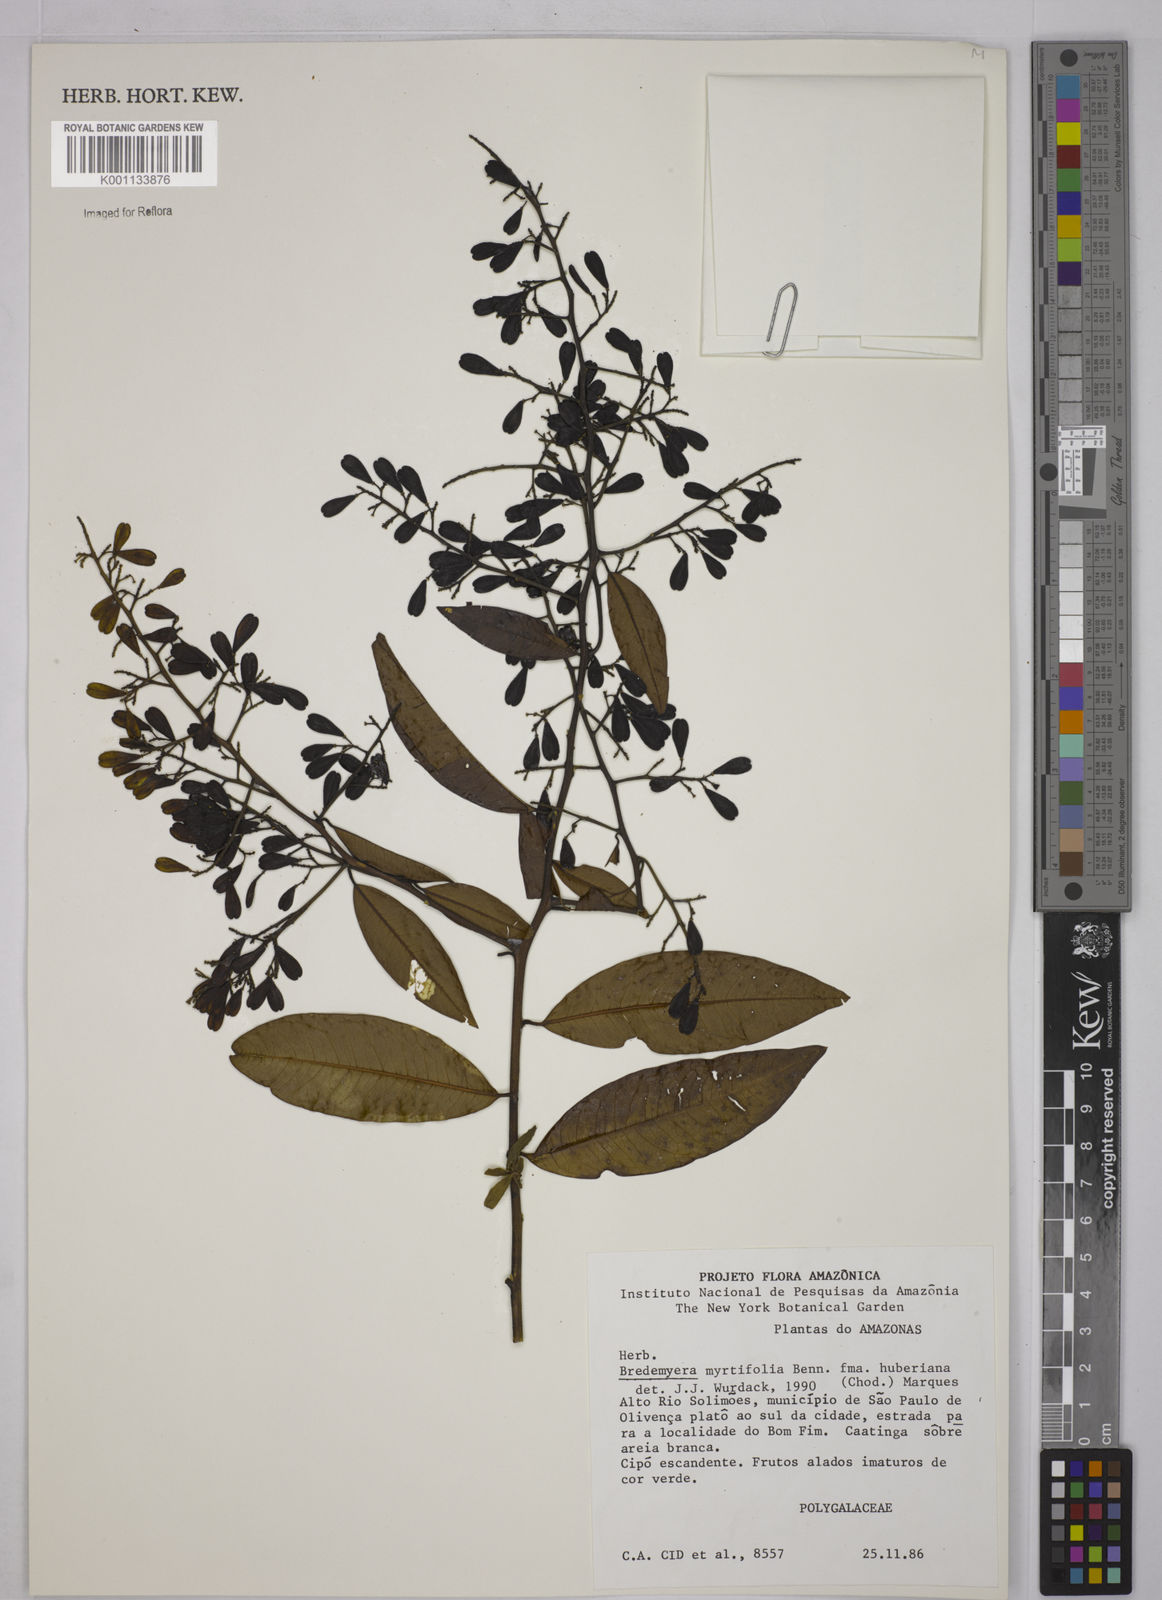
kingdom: Plantae
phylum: Tracheophyta
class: Magnoliopsida
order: Fabales
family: Polygalaceae
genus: Bredemeyera
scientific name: Bredemeyera myrtifolia
